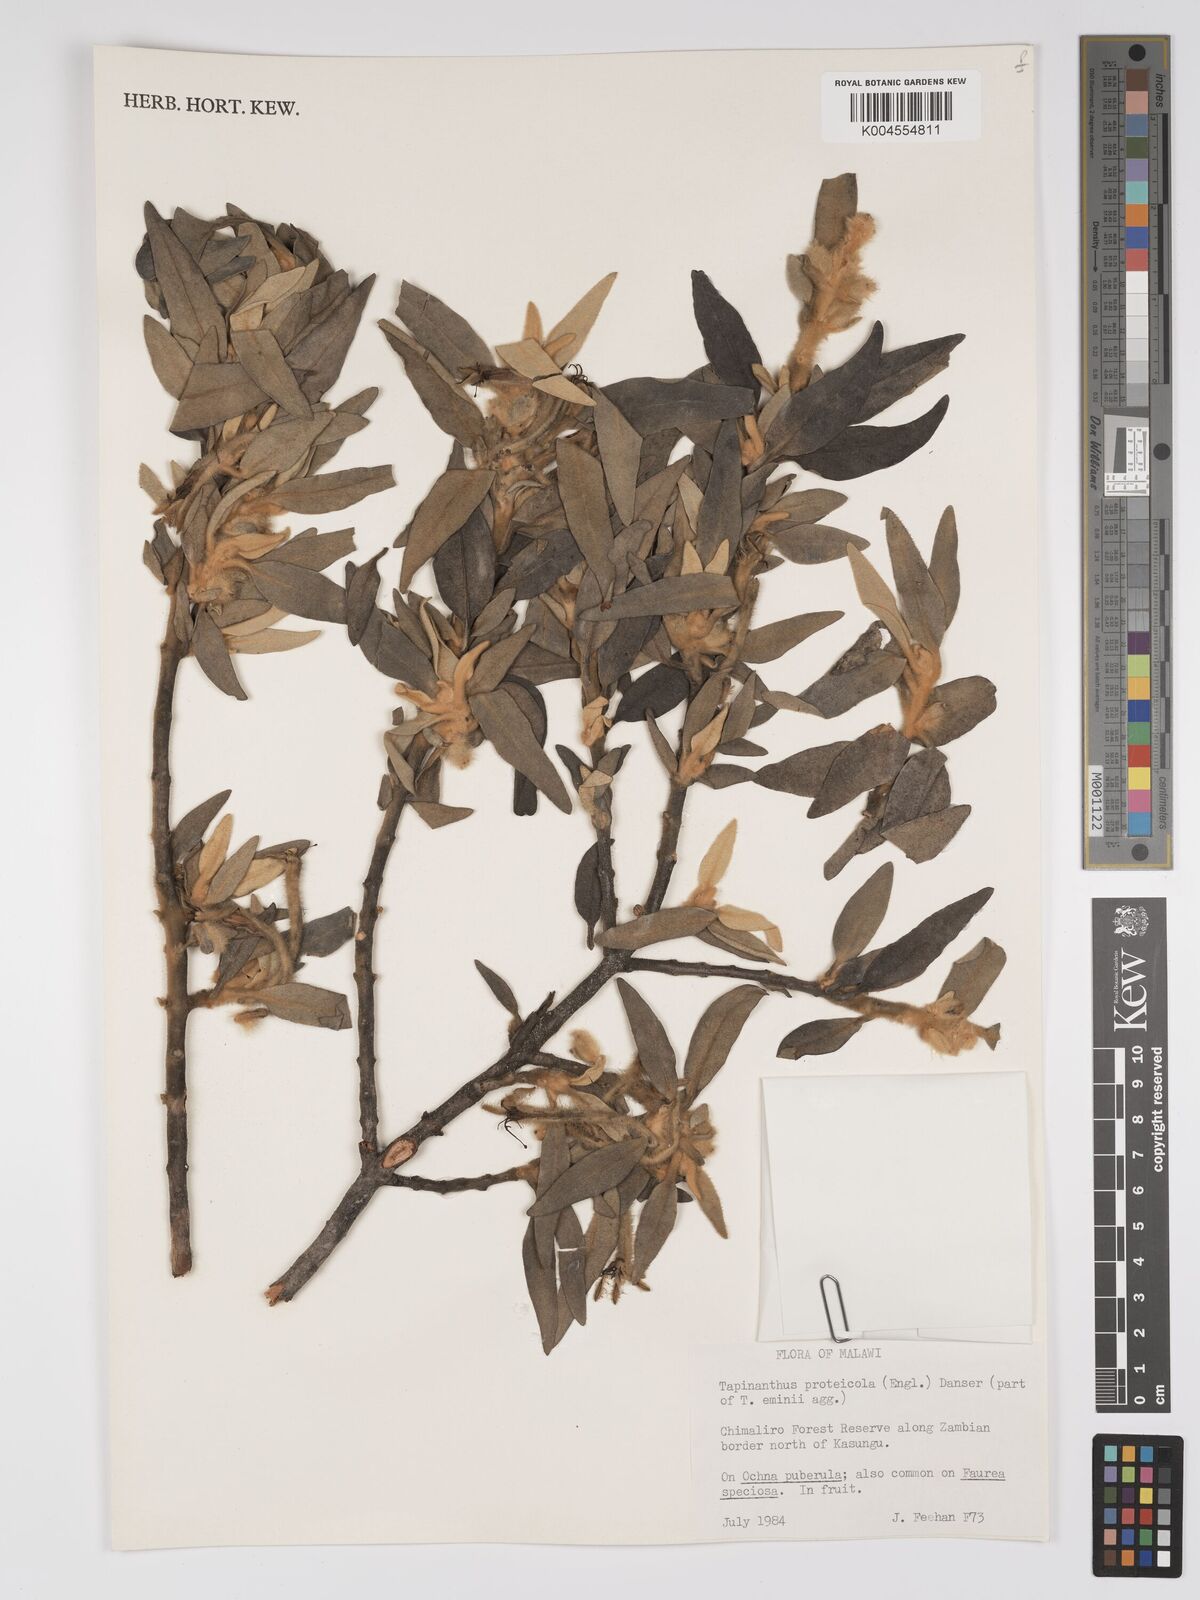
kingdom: Plantae
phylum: Tracheophyta
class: Magnoliopsida
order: Santalales
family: Loranthaceae
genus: Phragmanthera
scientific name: Phragmanthera proteicola
